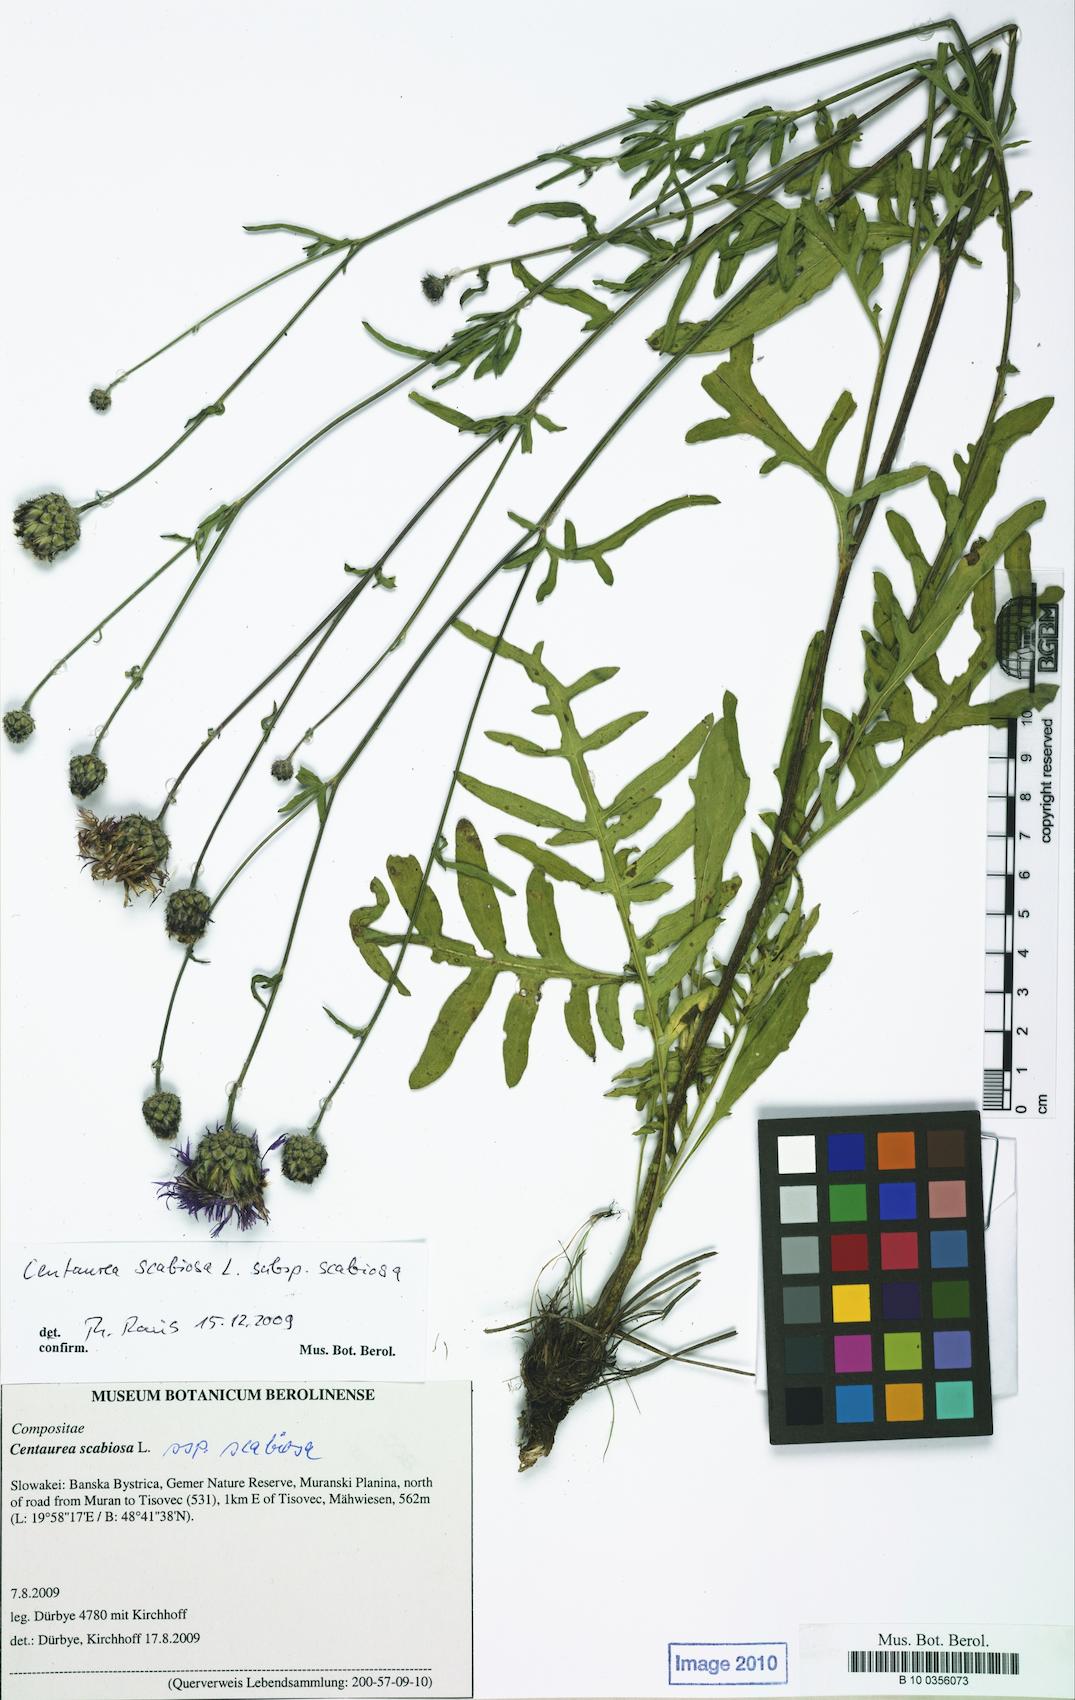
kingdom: Plantae
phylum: Tracheophyta
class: Magnoliopsida
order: Asterales
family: Asteraceae
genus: Centaurea
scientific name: Centaurea scabiosa
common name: Greater knapweed
